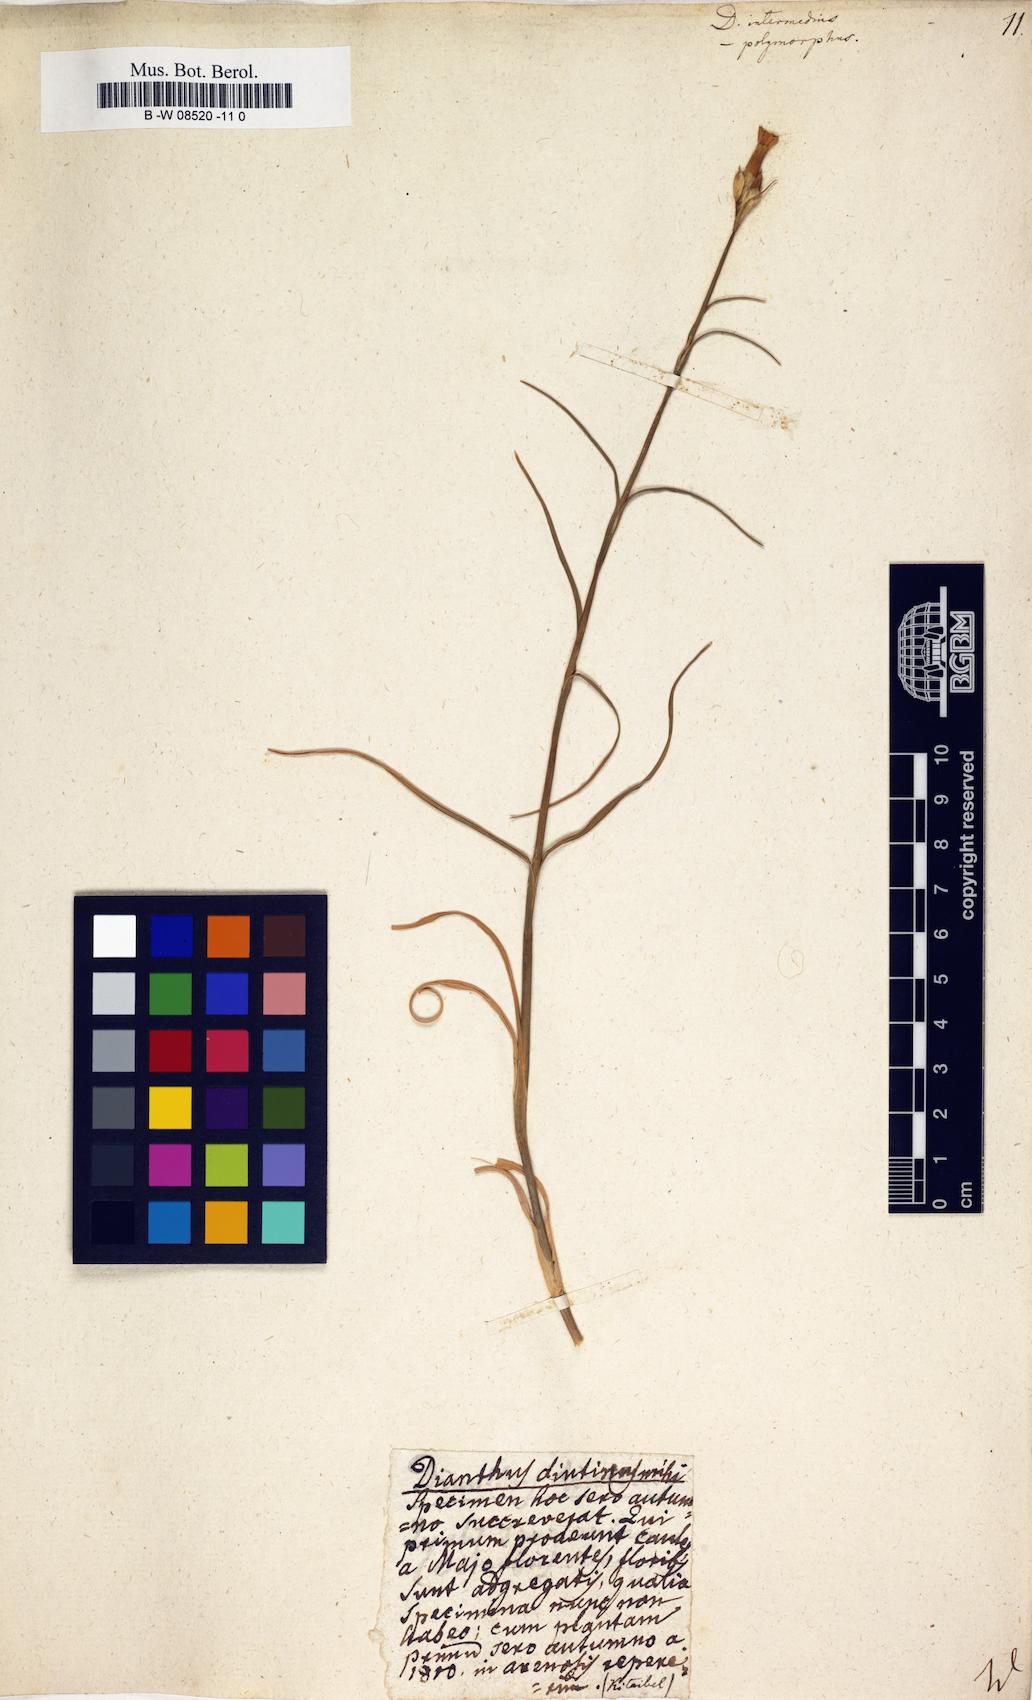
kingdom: Plantae
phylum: Tracheophyta
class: Magnoliopsida
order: Caryophyllales
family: Caryophyllaceae
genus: Dianthus
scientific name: Dianthus
